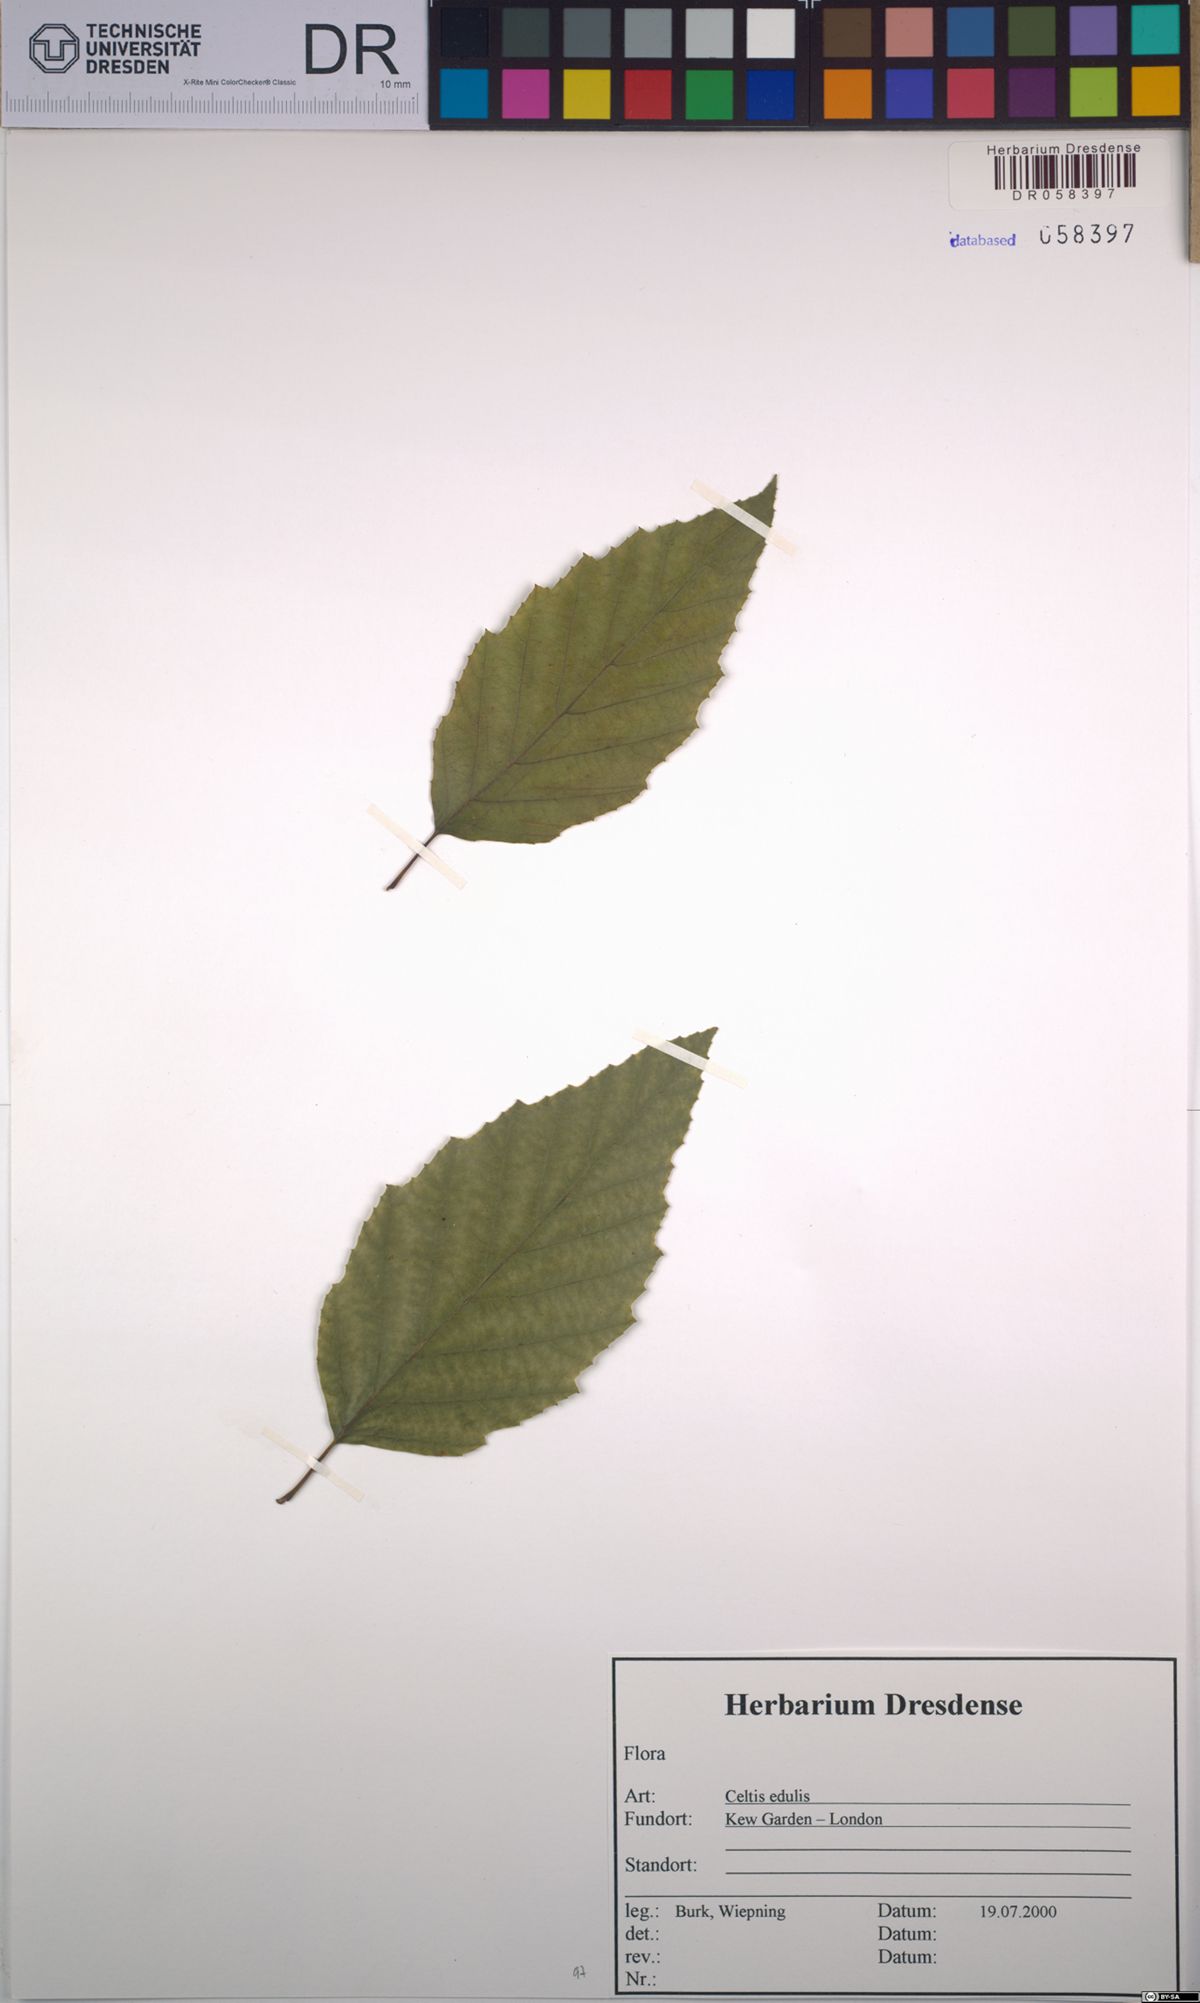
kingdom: Plantae
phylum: Tracheophyta
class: Magnoliopsida
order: Rosales
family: Cannabaceae
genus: Celtis
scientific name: Celtis jessoensis
